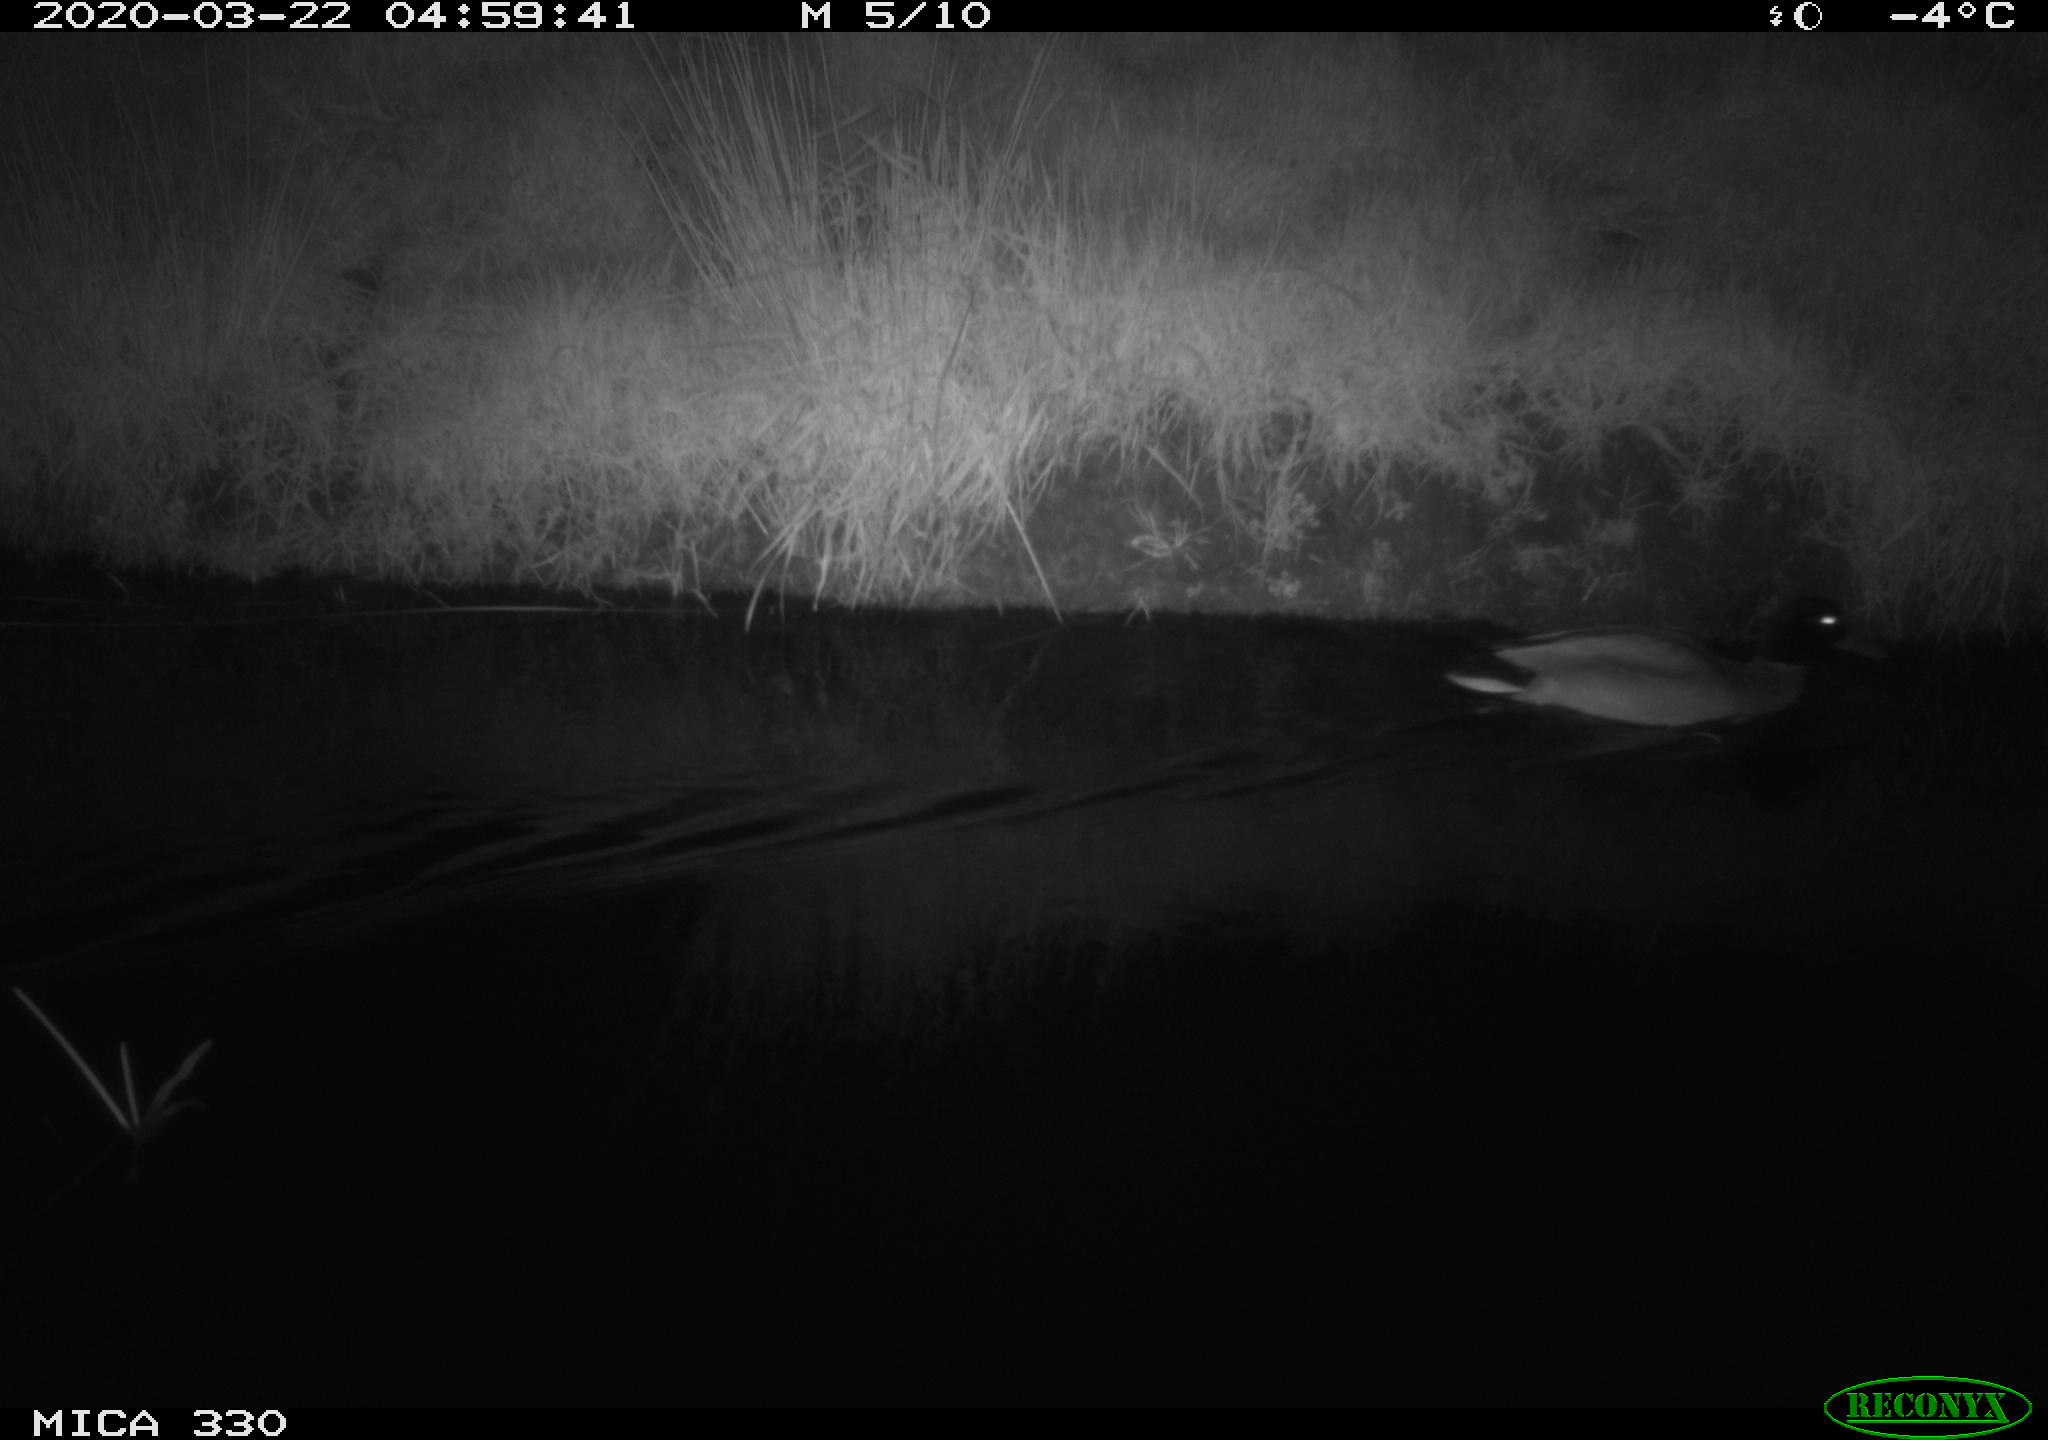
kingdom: Animalia
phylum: Chordata
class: Aves
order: Anseriformes
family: Anatidae
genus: Anas
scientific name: Anas platyrhynchos
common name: Mallard
